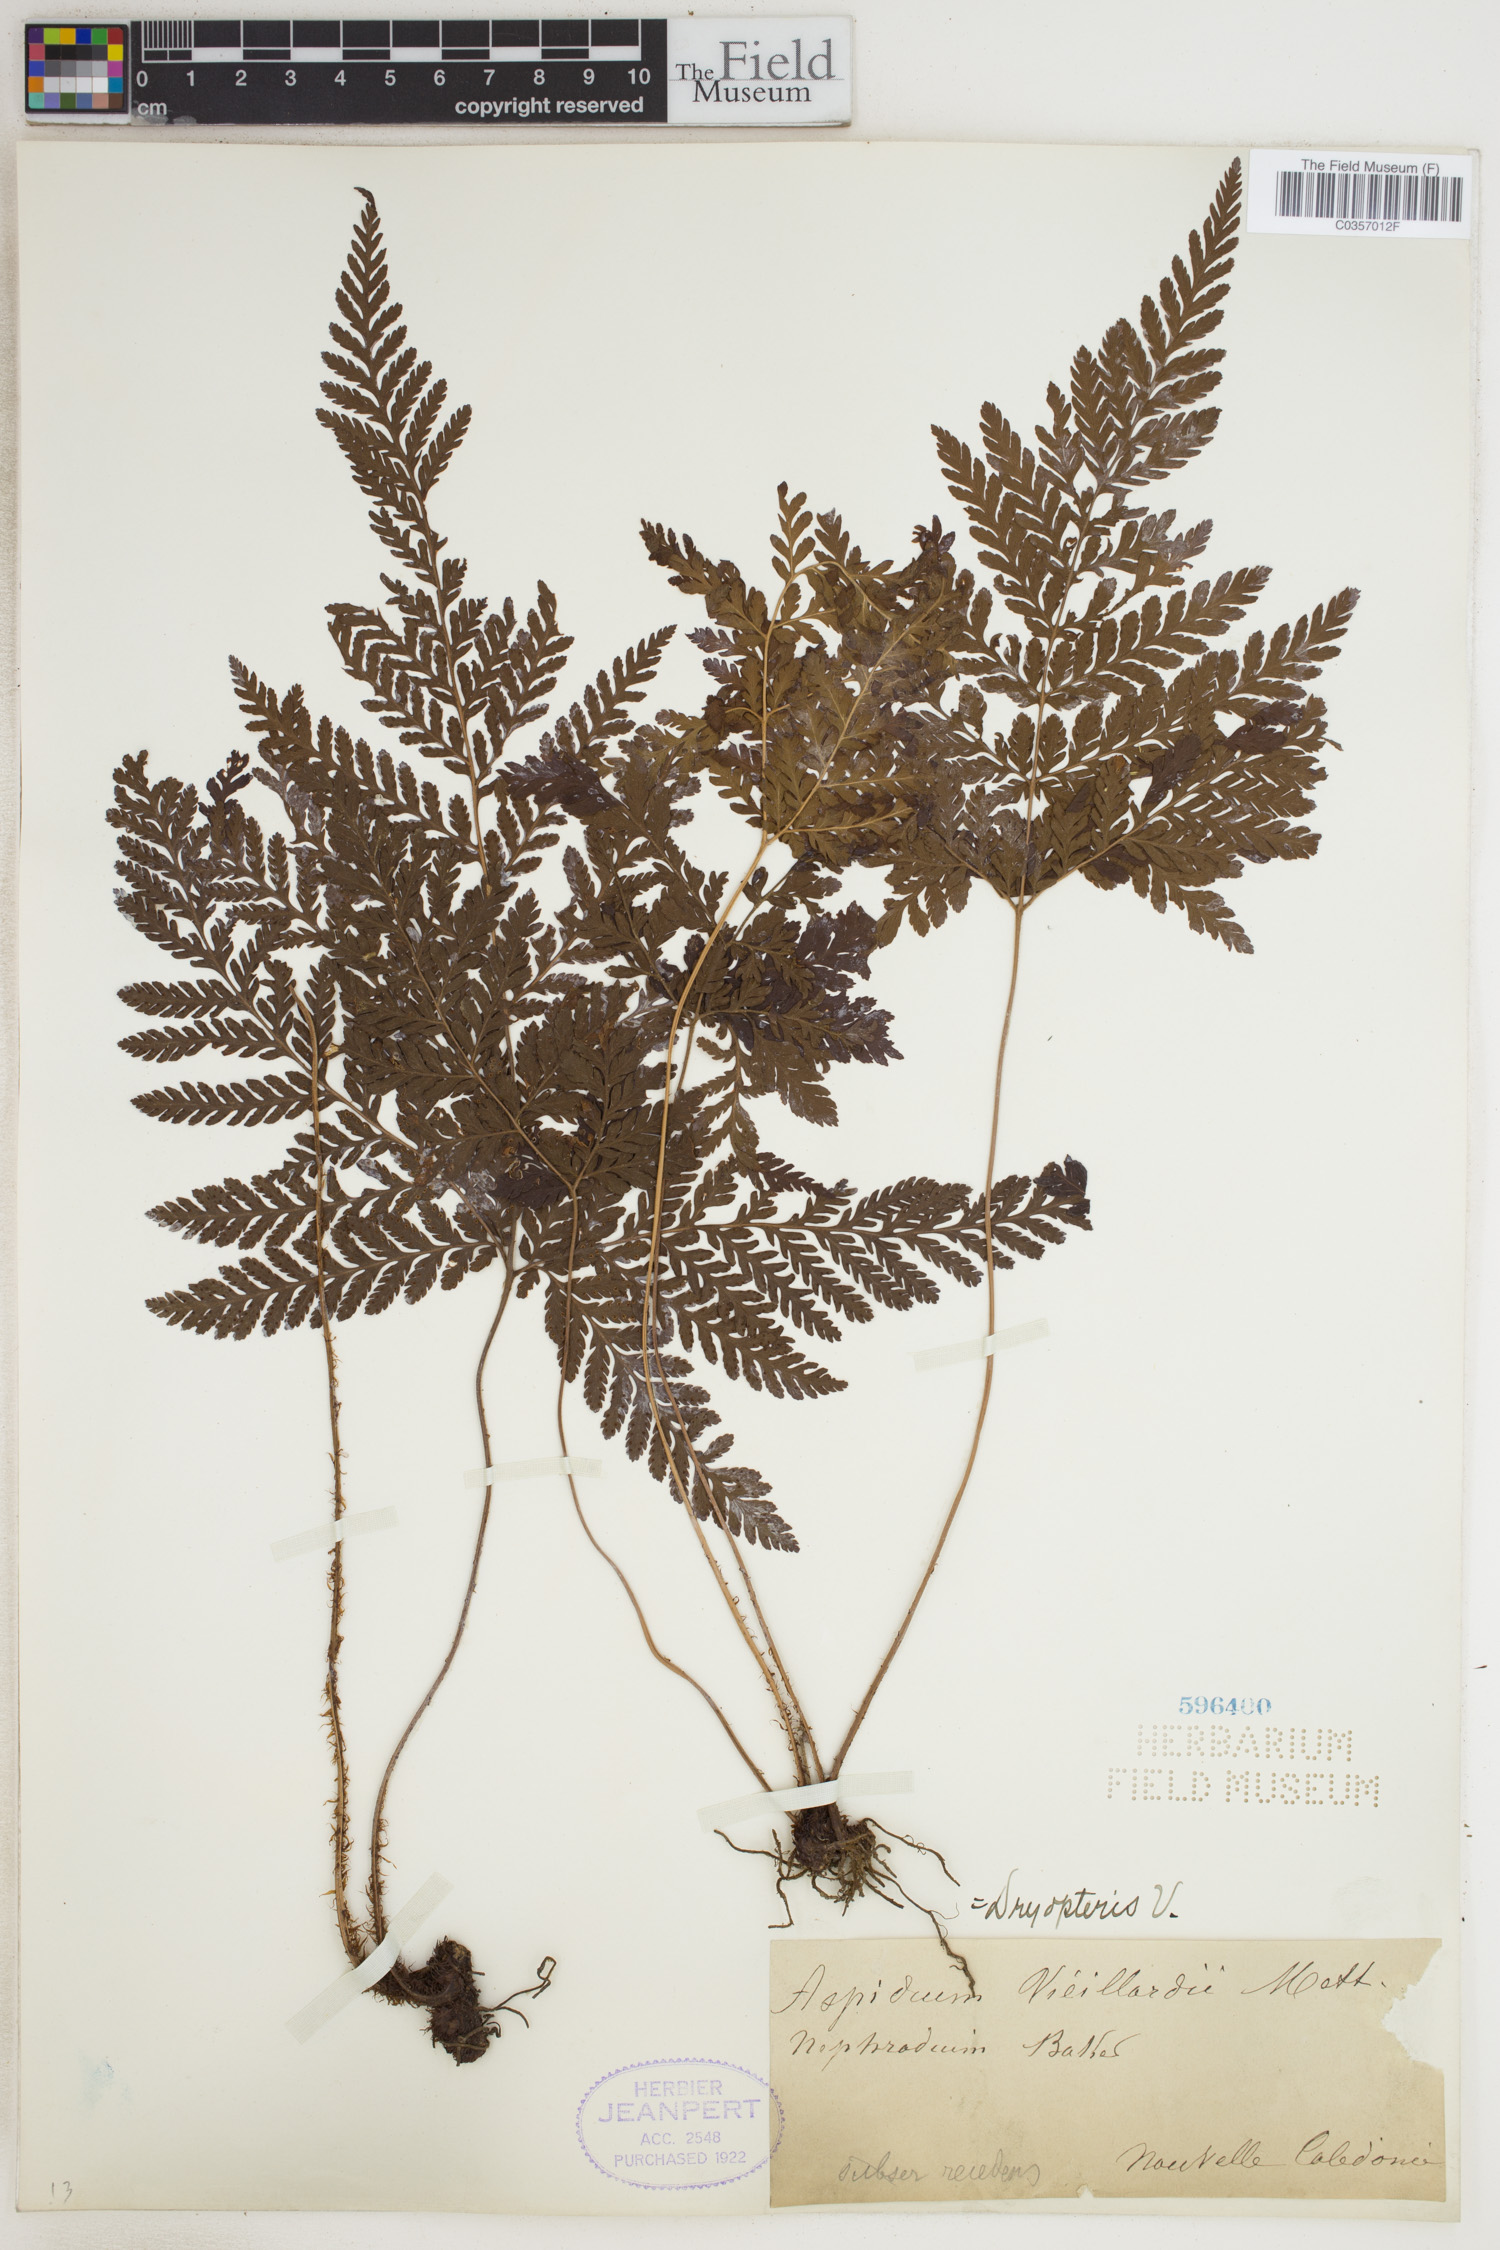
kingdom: Plantae
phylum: Tracheophyta
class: Polypodiopsida
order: Polypodiales
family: Dryopteridaceae
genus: Lastreopsis
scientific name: Lastreopsis vieillardii
